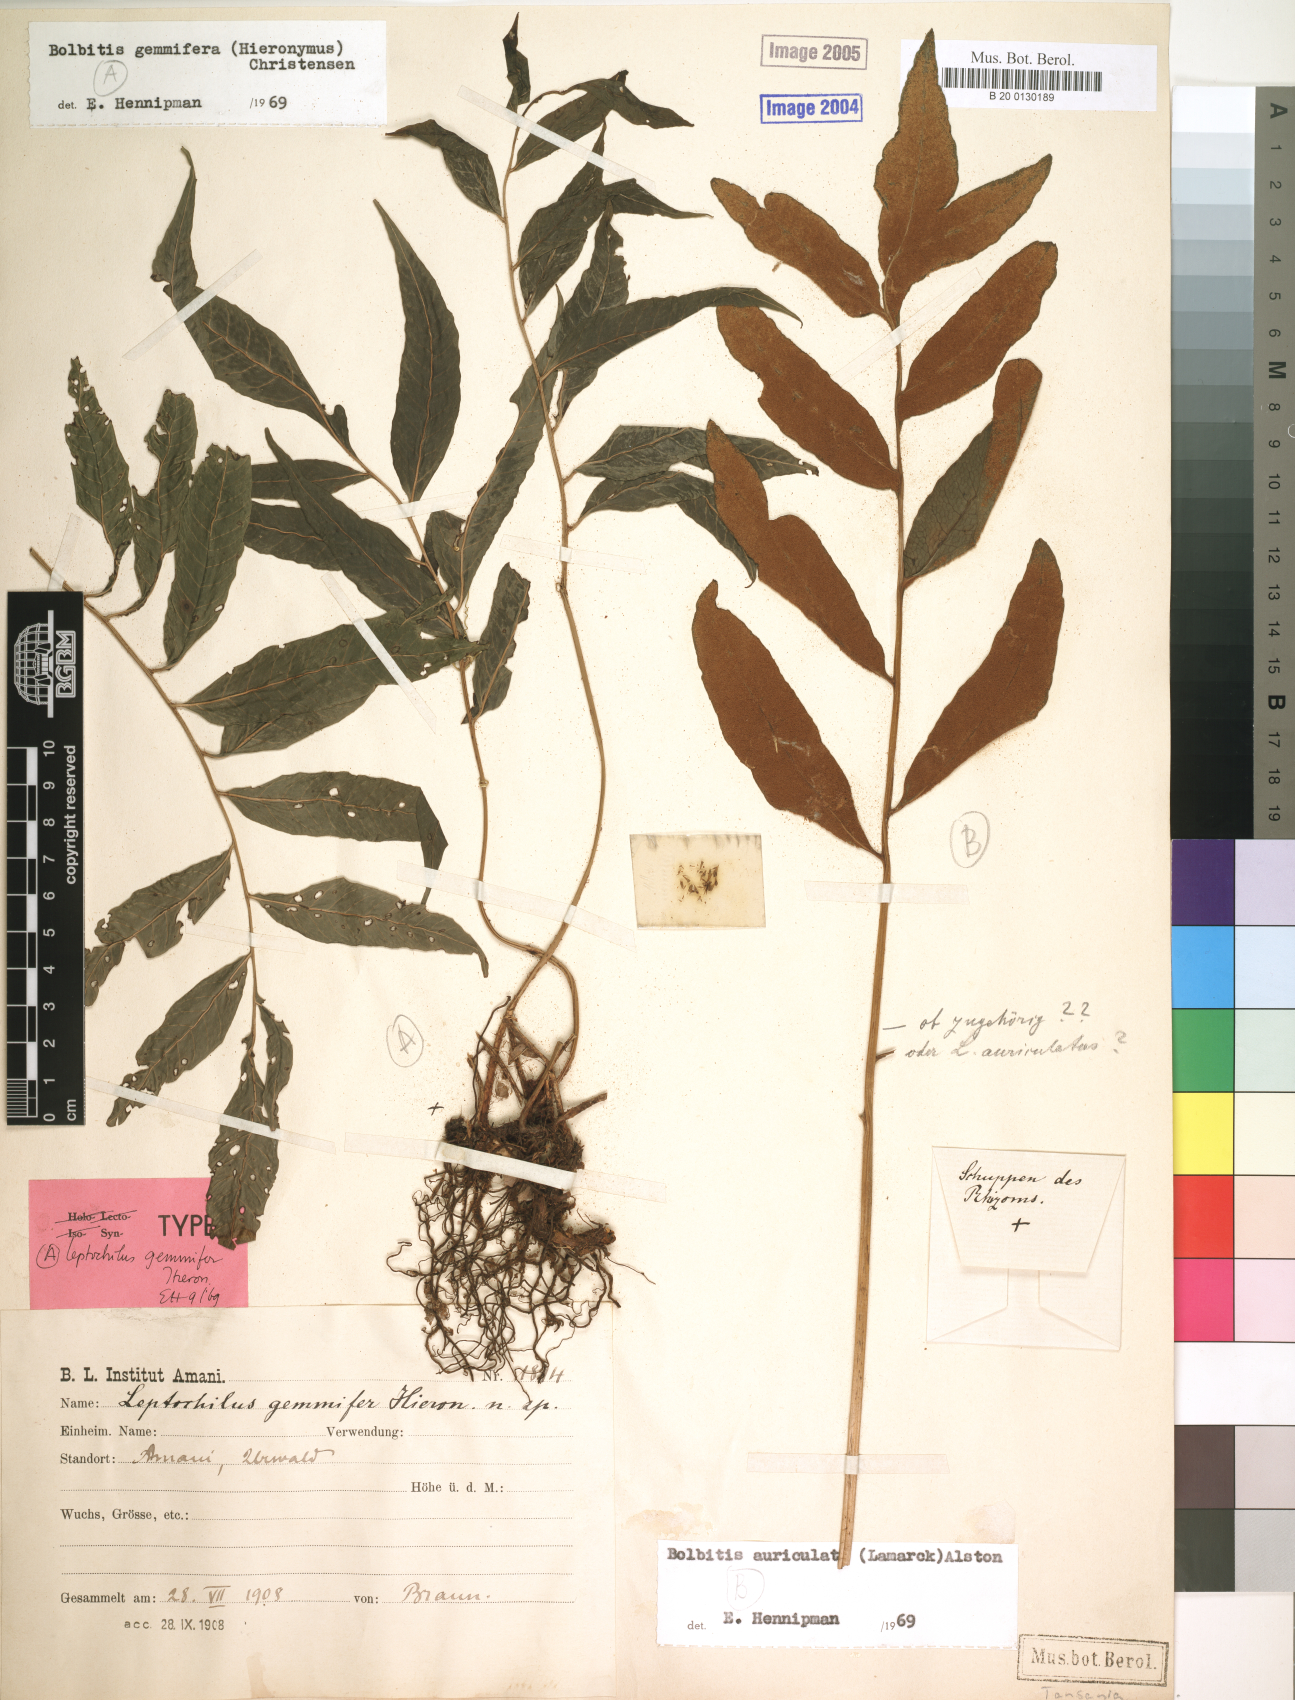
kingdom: Plantae
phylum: Tracheophyta
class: Polypodiopsida
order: Polypodiales
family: Dryopteridaceae
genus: Bolbitis
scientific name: Bolbitis gemmifer
